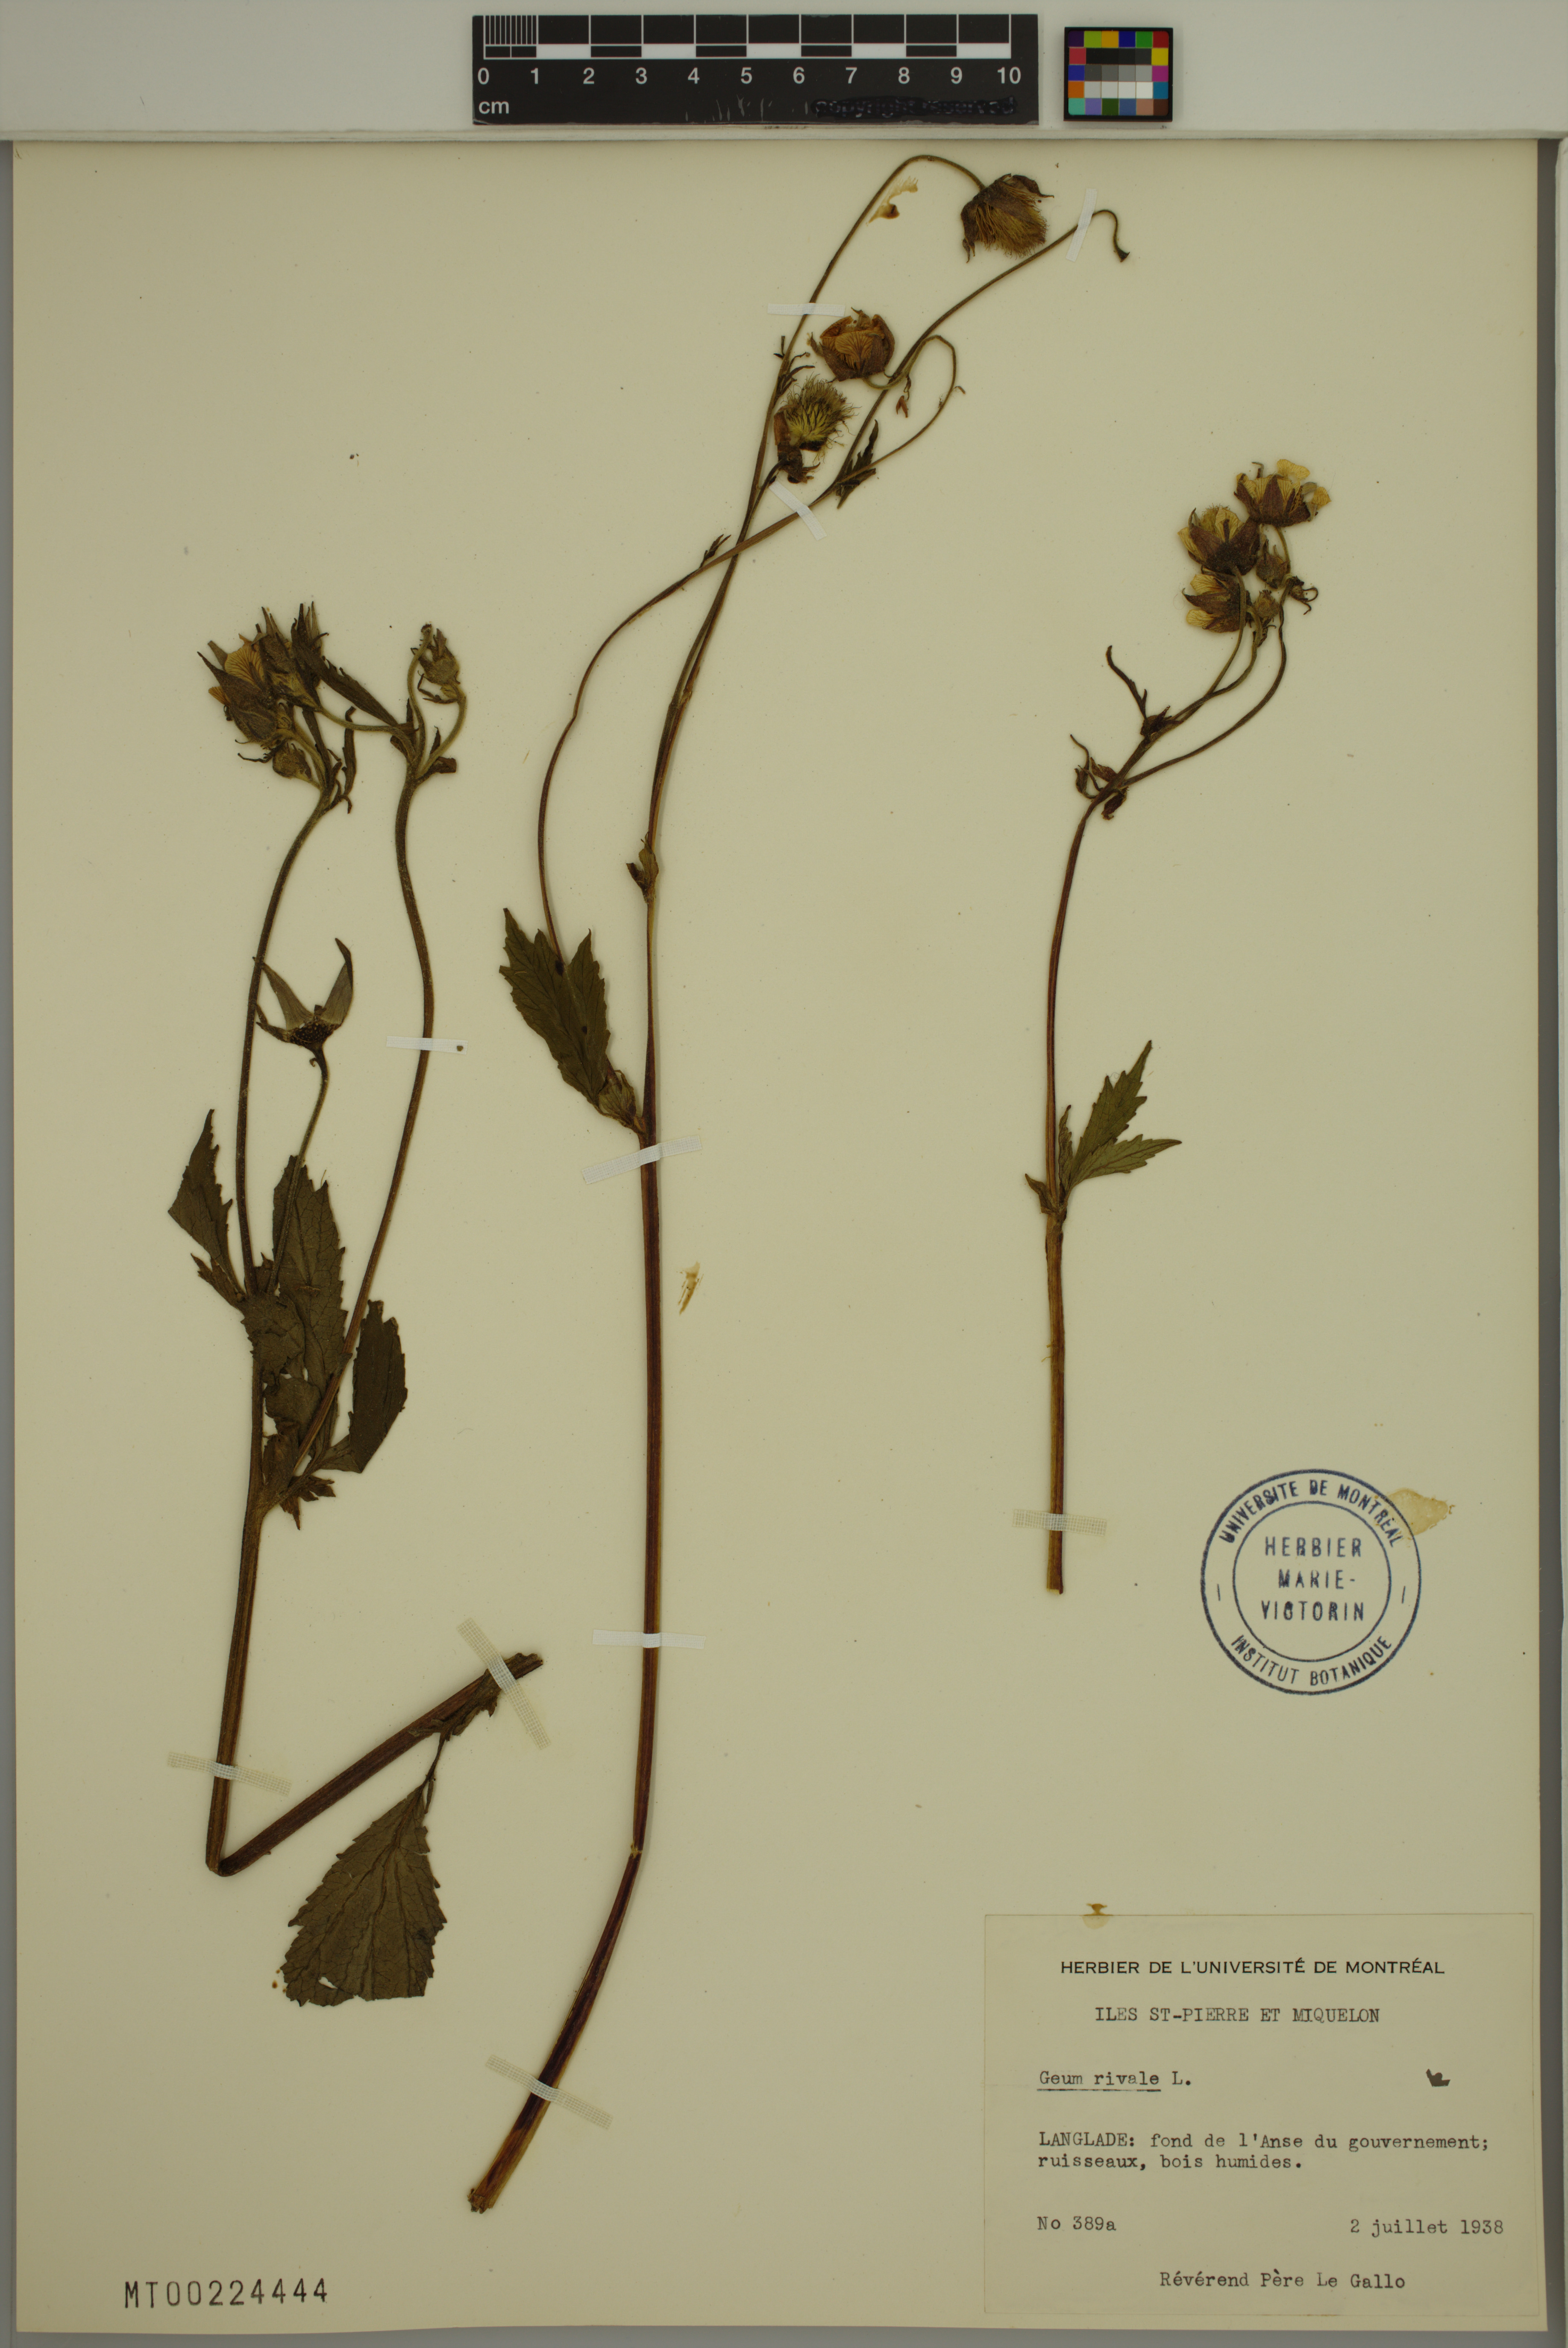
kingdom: Plantae
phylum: Tracheophyta
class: Magnoliopsida
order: Rosales
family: Rosaceae
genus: Geum
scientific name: Geum rivale
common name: Water avens
